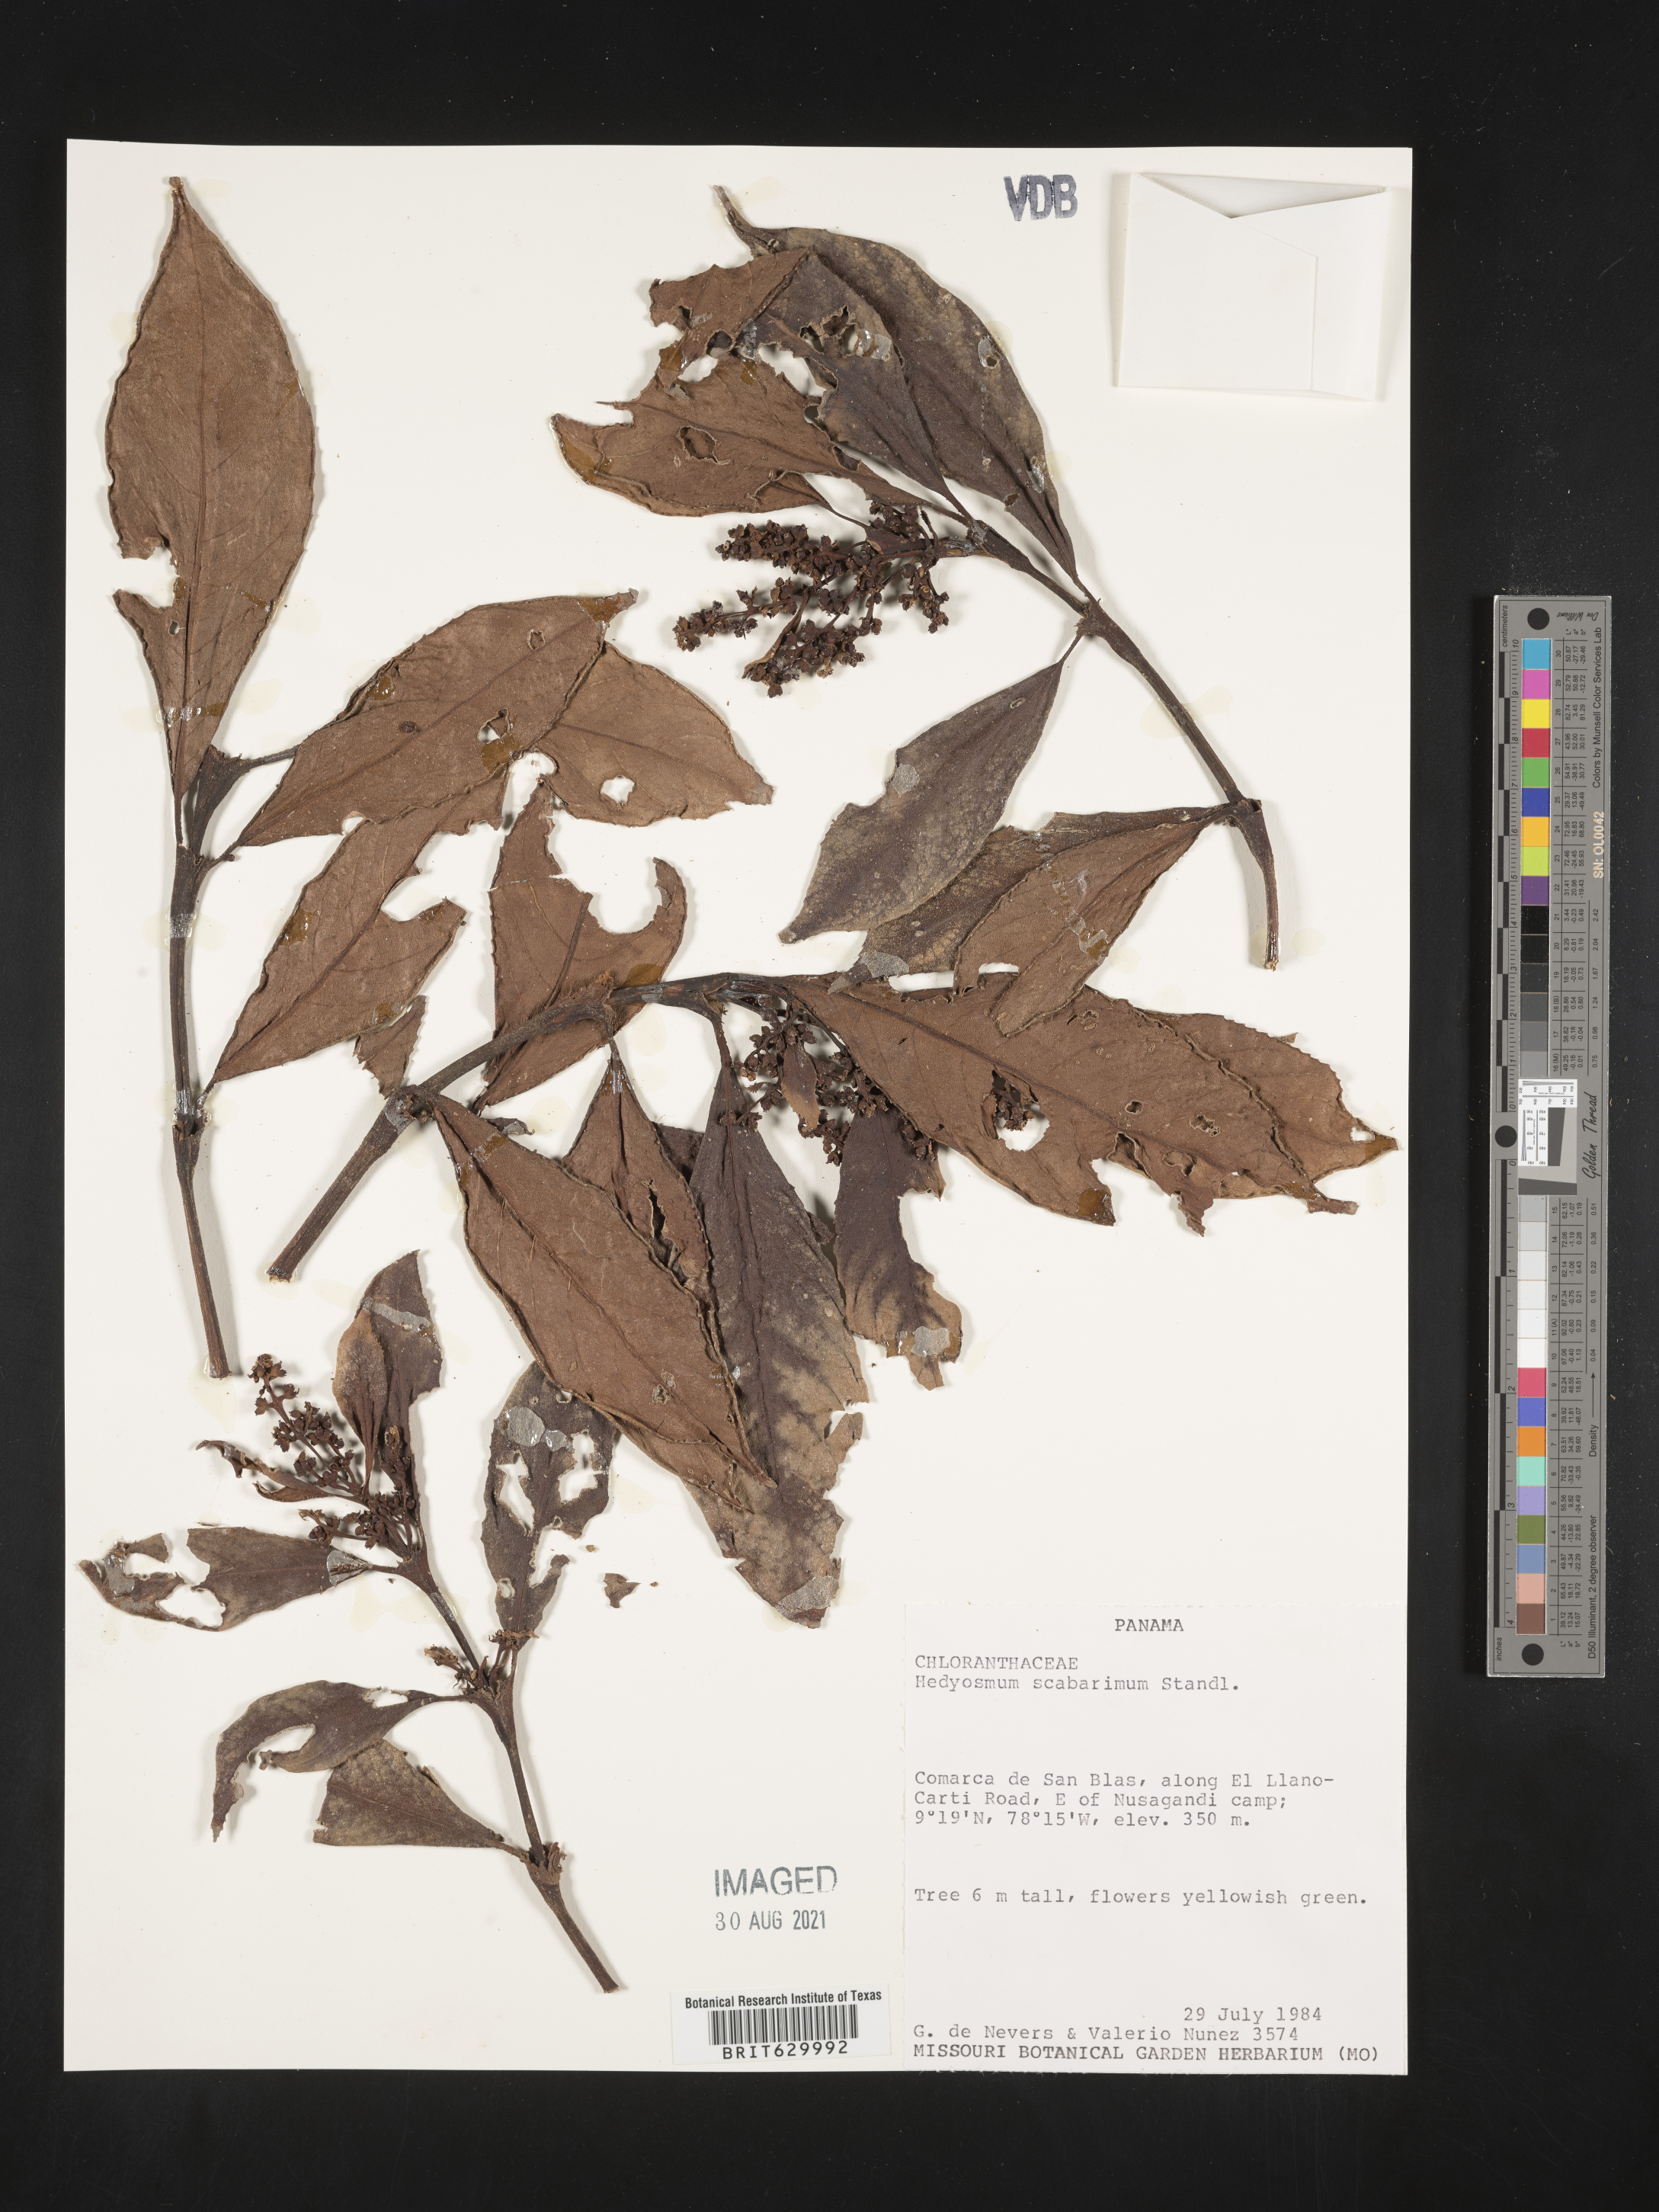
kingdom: Plantae
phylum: Tracheophyta
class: Magnoliopsida
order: Chloranthales
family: Chloranthaceae
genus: Hedyosmum
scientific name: Hedyosmum scaberrimum
